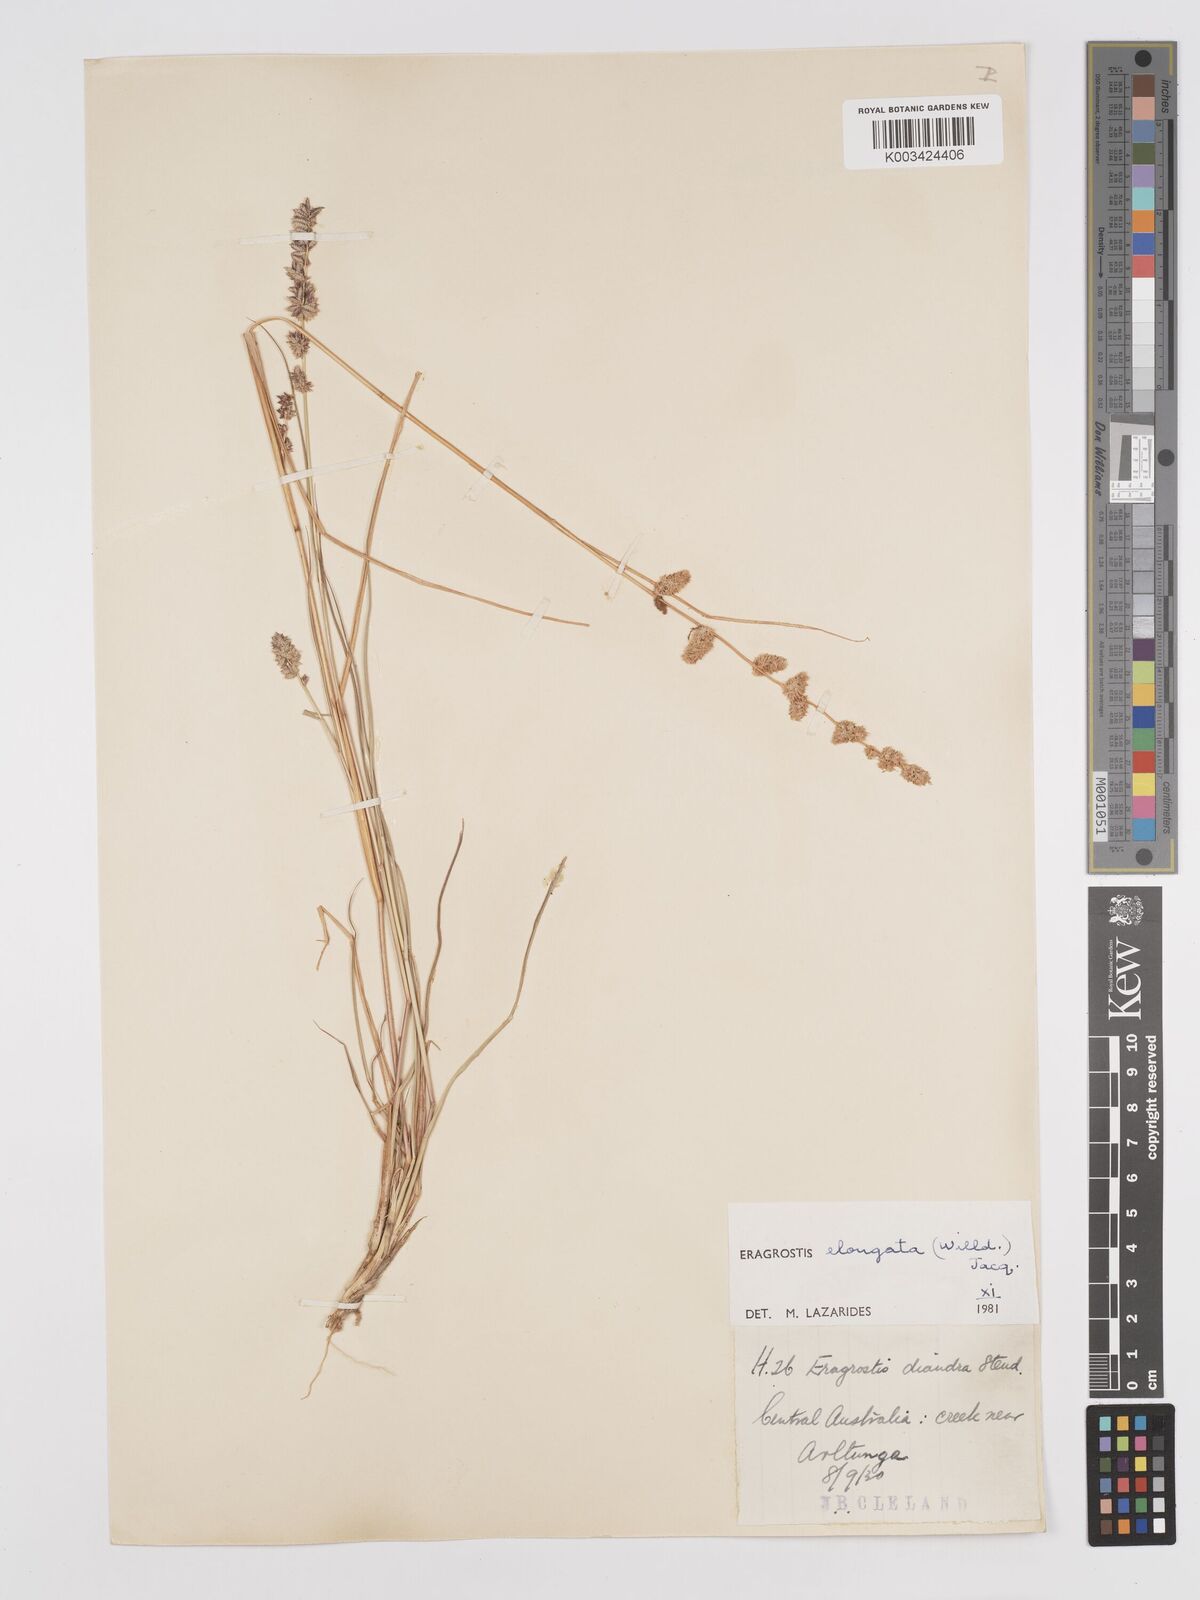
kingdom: Plantae
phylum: Tracheophyta
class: Liliopsida
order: Poales
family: Poaceae
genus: Eragrostis
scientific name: Eragrostis elongata
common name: Long lovegrass
